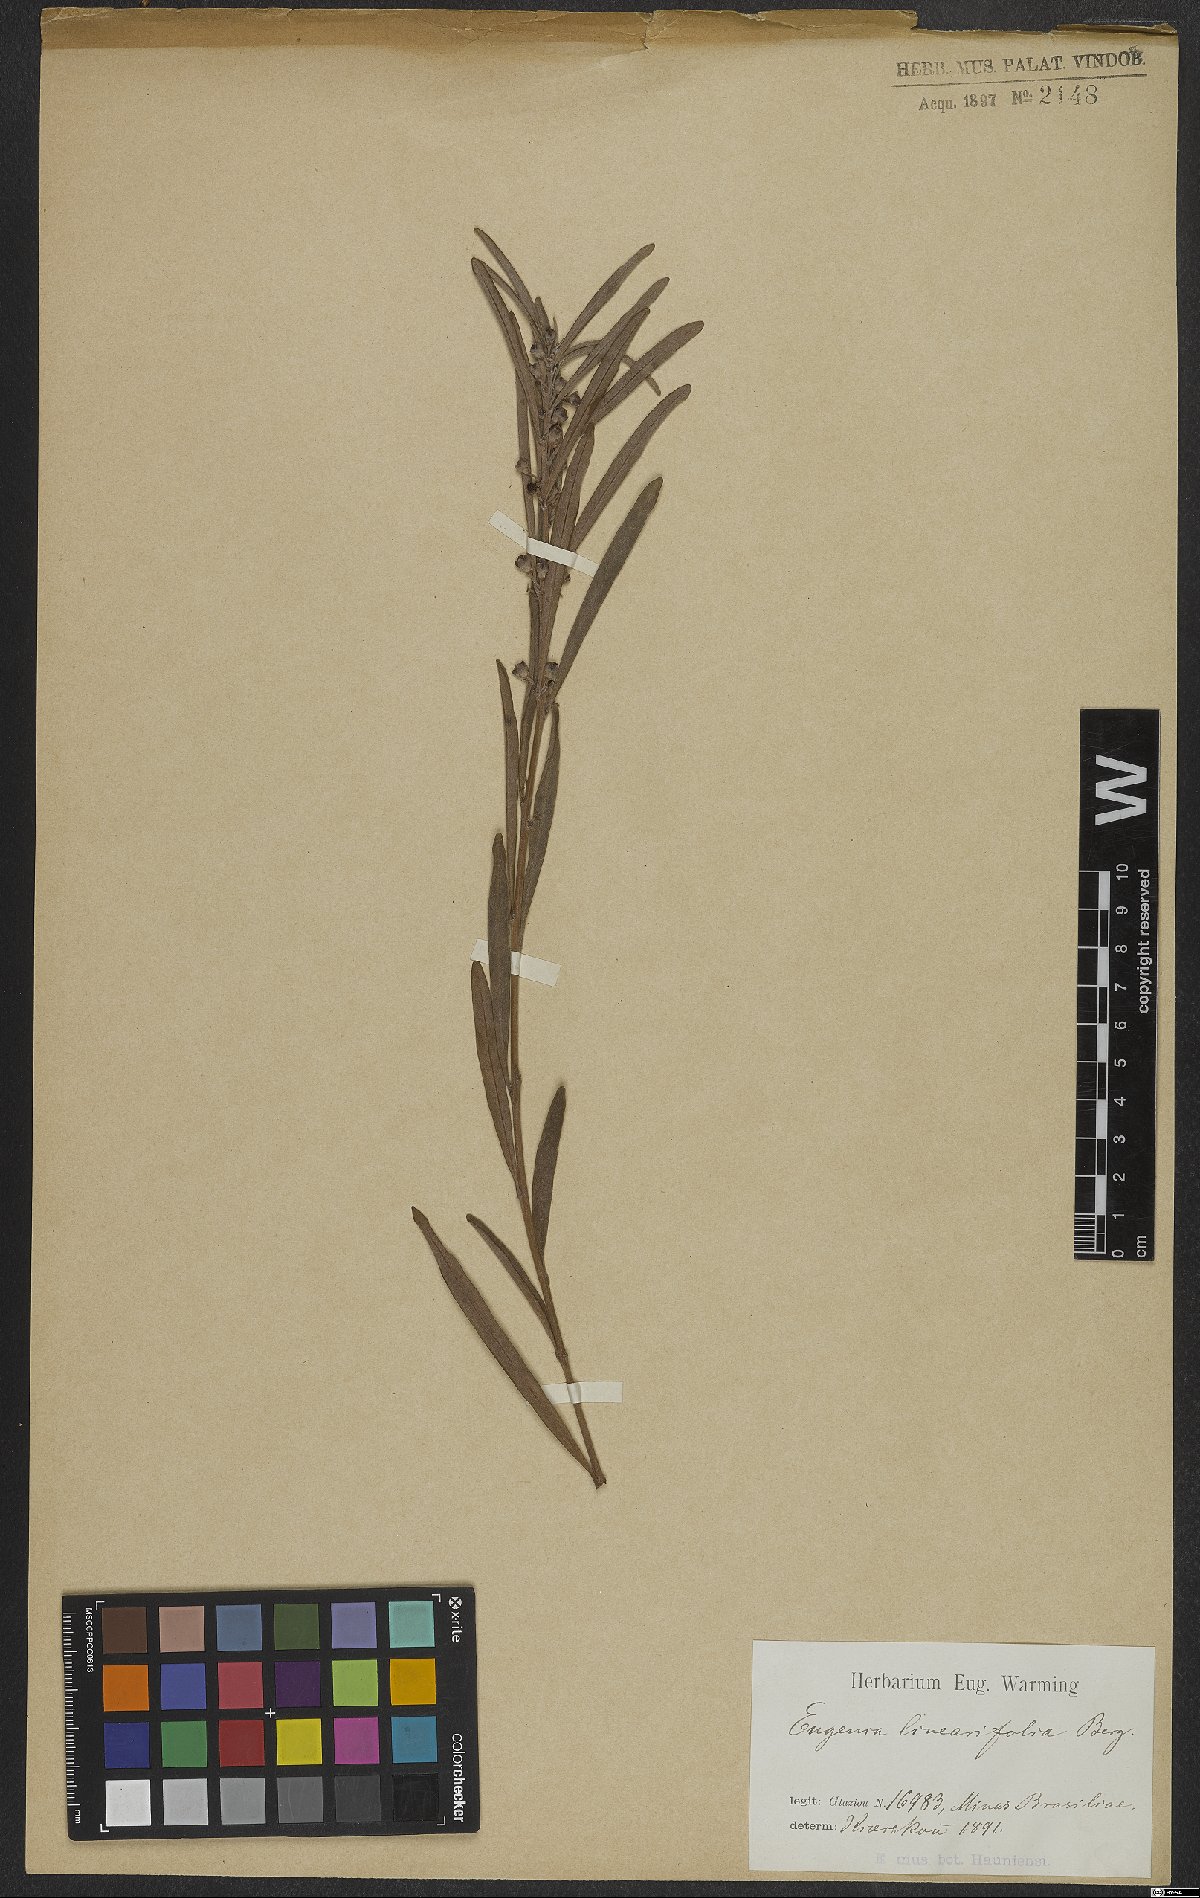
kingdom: Plantae
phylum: Tracheophyta
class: Magnoliopsida
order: Myrtales
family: Myrtaceae
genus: Eugenia
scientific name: Eugenia punicifolia
